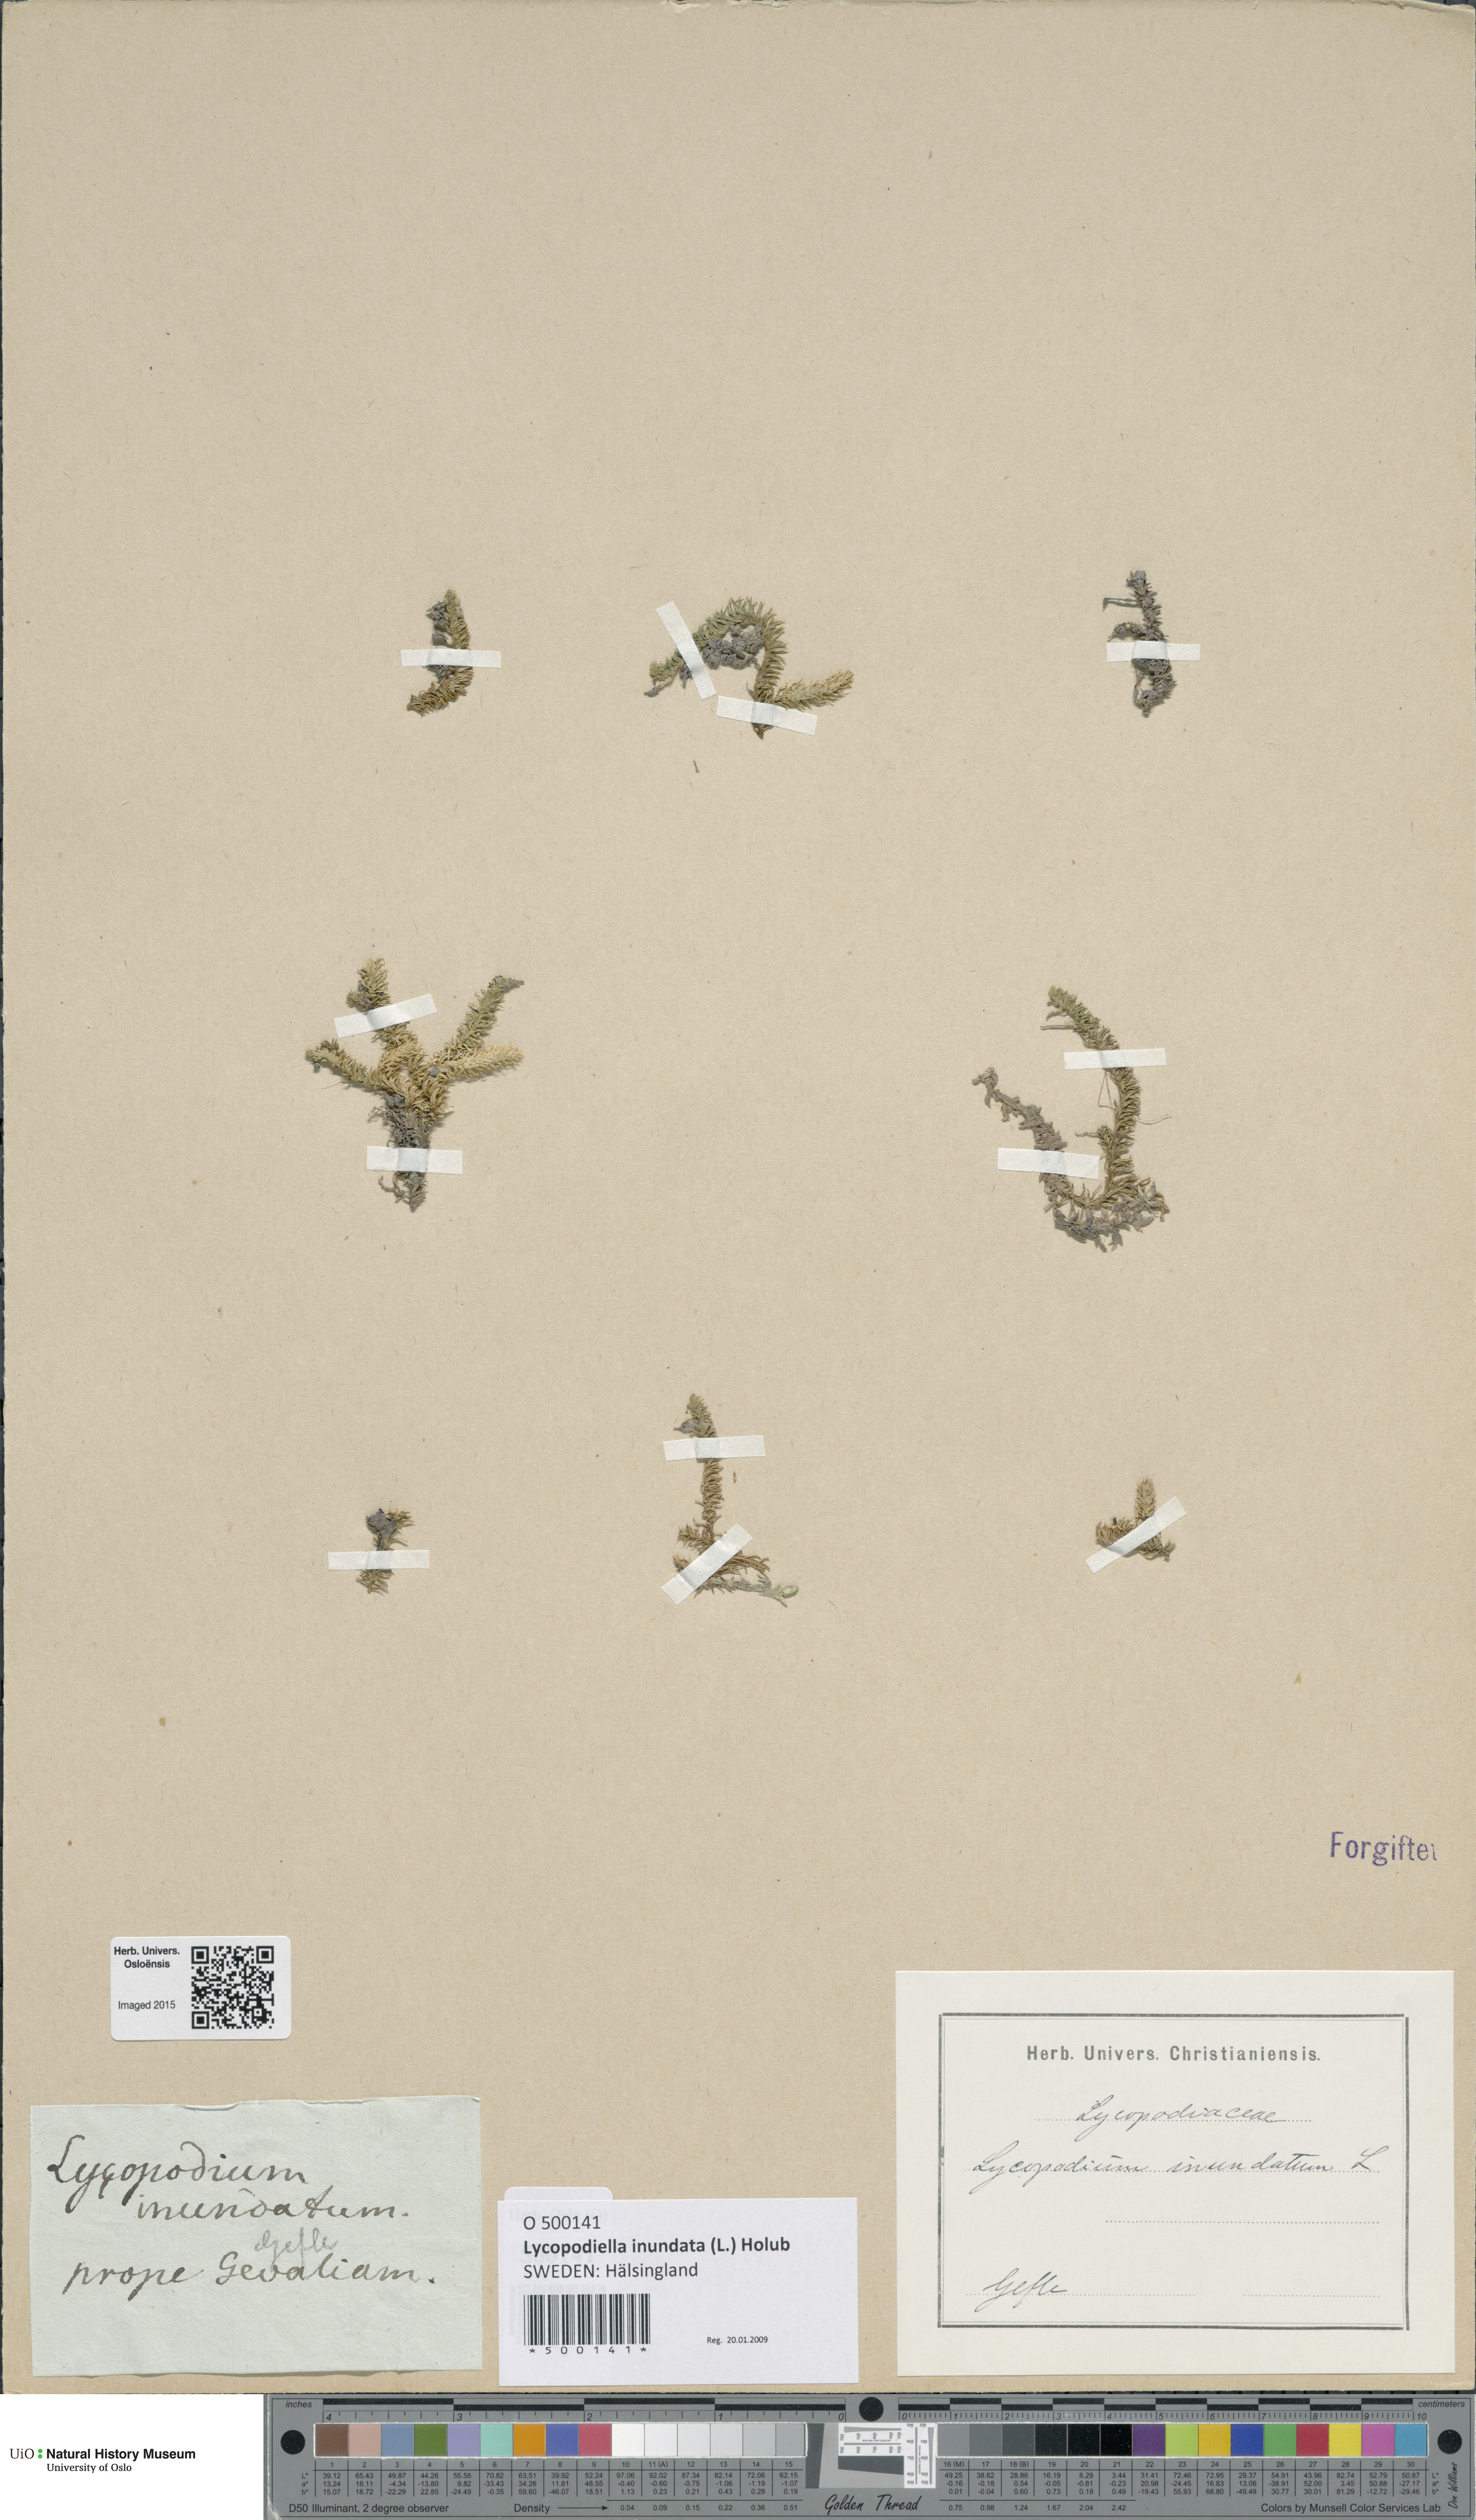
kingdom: Plantae
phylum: Tracheophyta
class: Lycopodiopsida
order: Lycopodiales
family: Lycopodiaceae
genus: Lycopodiella
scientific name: Lycopodiella inundata
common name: Marsh clubmoss
